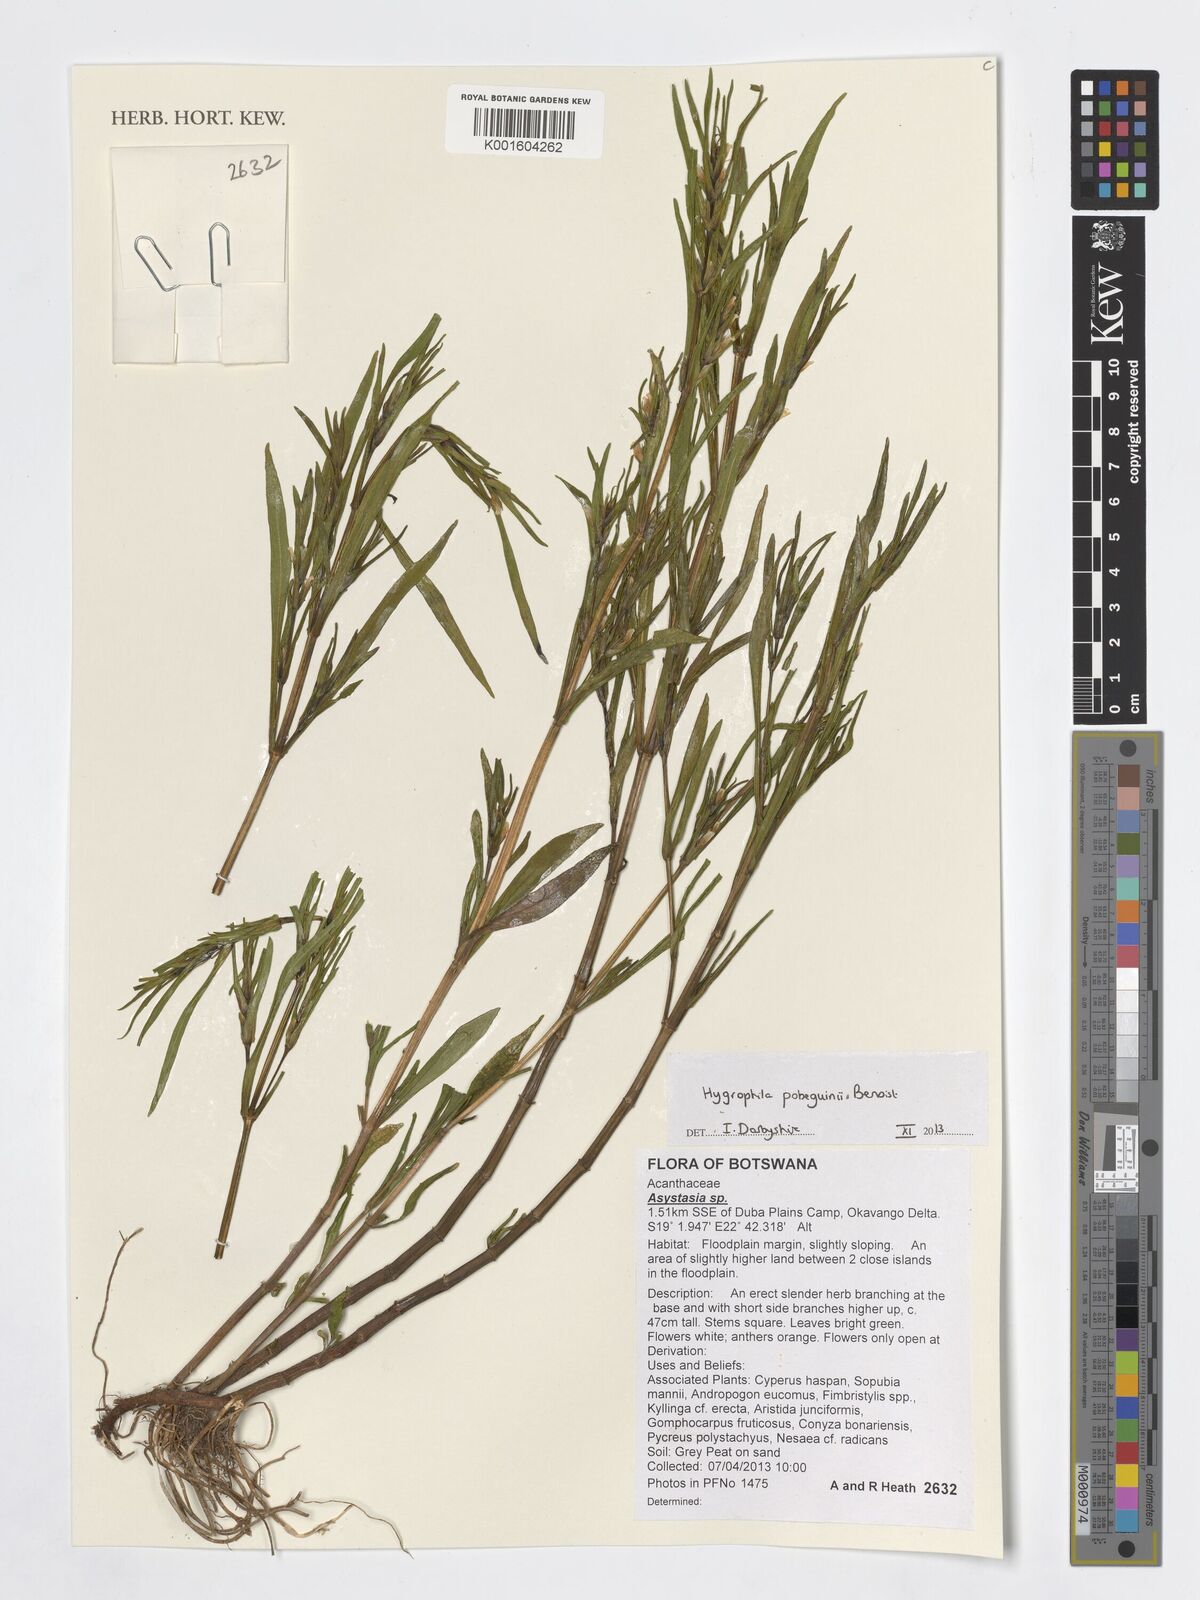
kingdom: Plantae
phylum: Tracheophyta
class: Magnoliopsida
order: Lamiales
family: Acanthaceae
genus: Asystasia
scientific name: Asystasia
